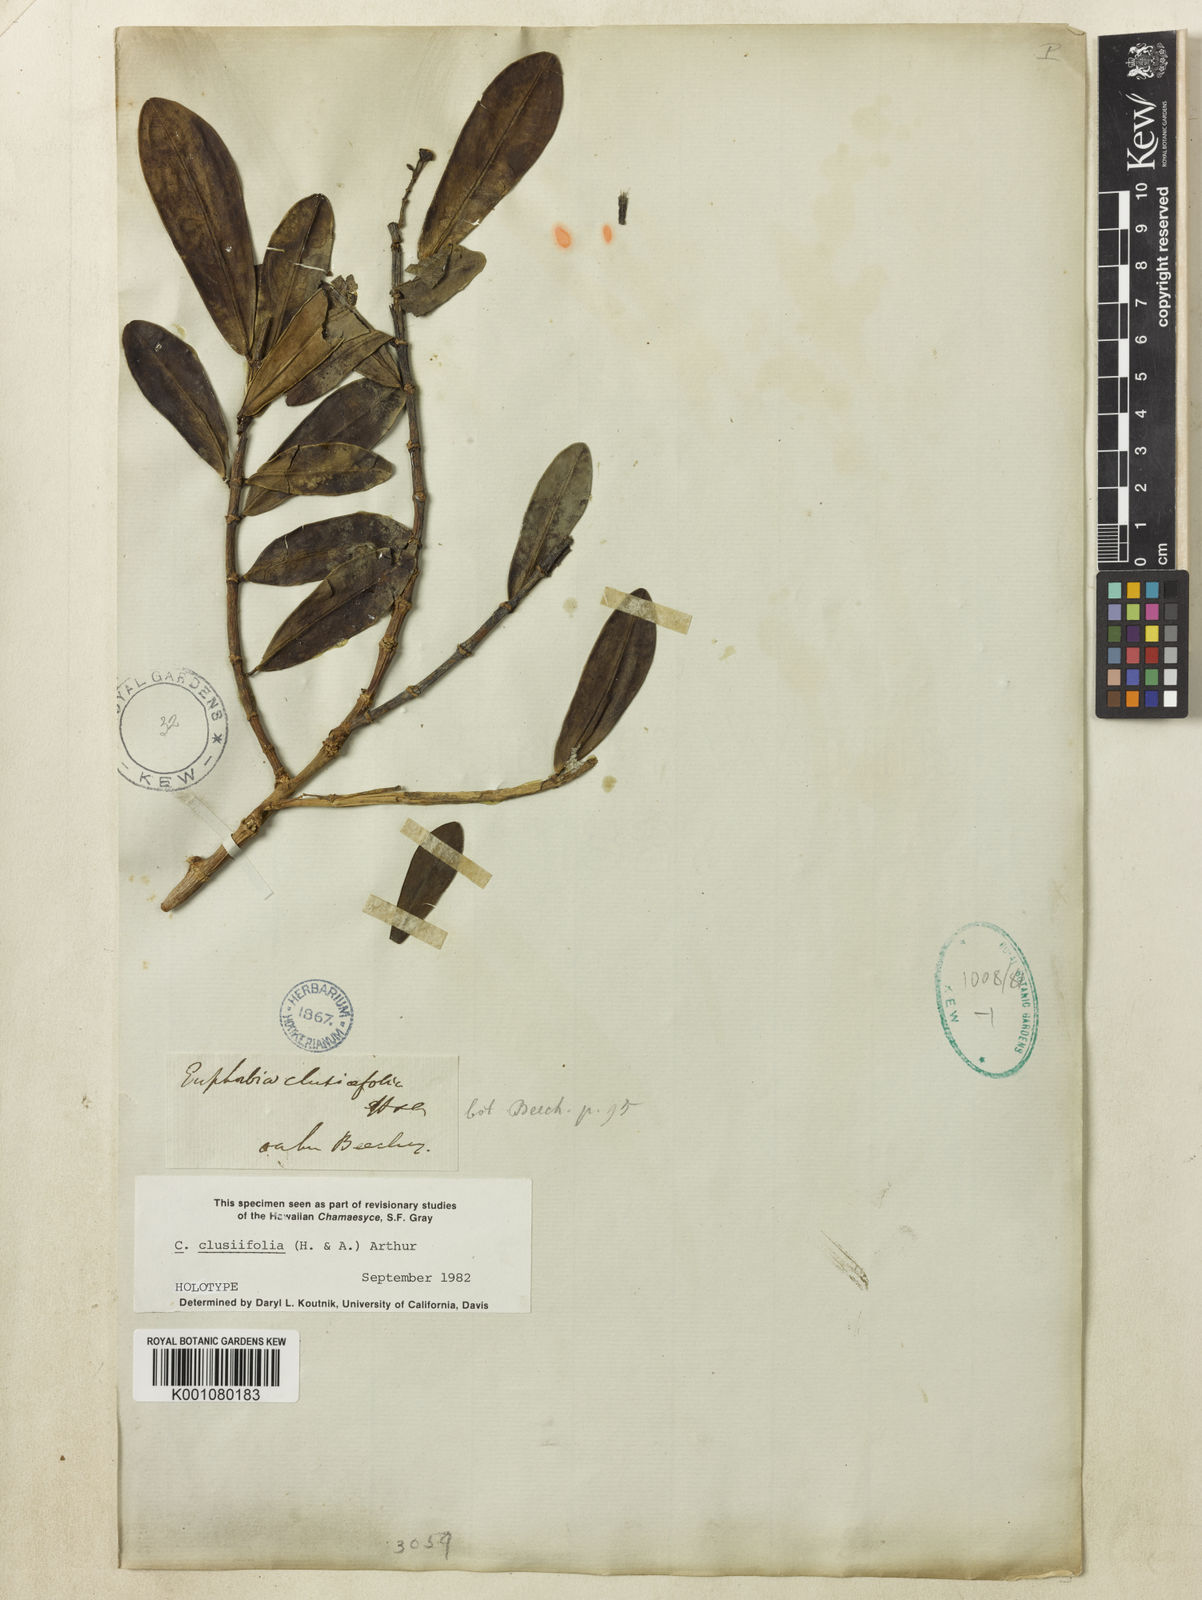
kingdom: Plantae
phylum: Tracheophyta
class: Magnoliopsida
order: Malpighiales
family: Euphorbiaceae
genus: Euphorbia
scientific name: Euphorbia clusiifolia
